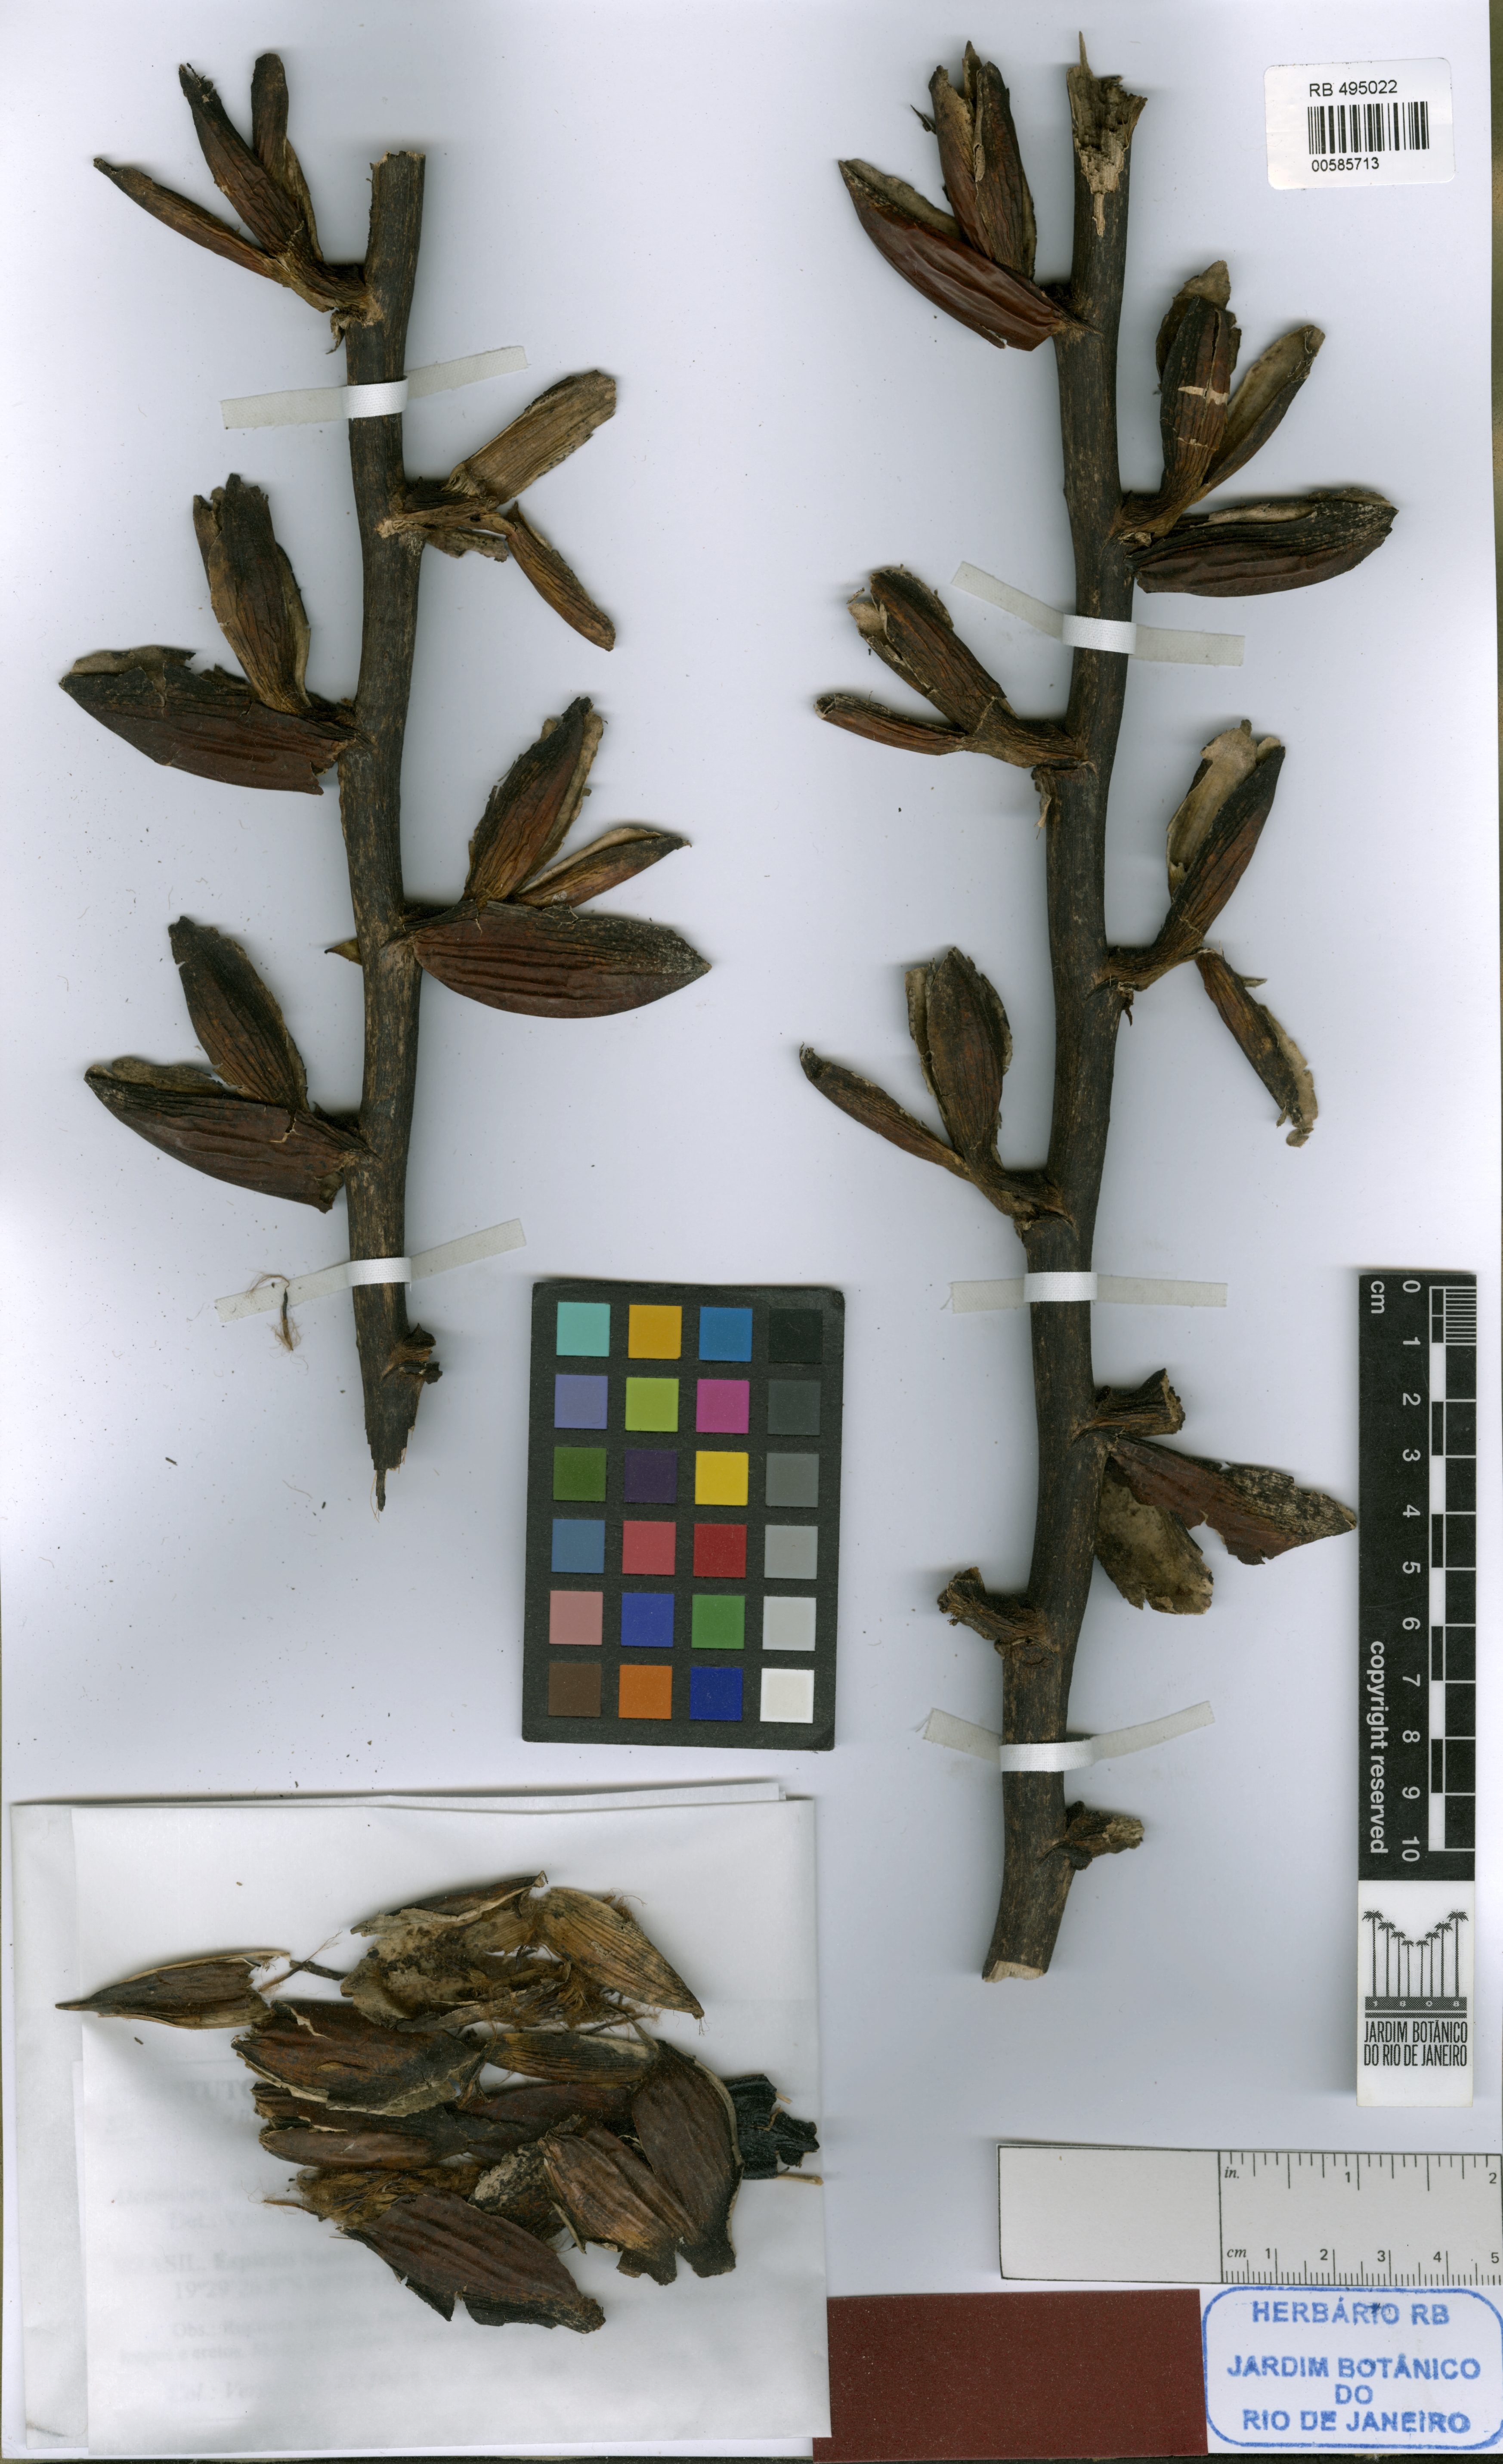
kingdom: Plantae
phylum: Tracheophyta
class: Liliopsida
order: Poales
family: Bromeliaceae
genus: Alcantarea
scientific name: Alcantarea trepida
